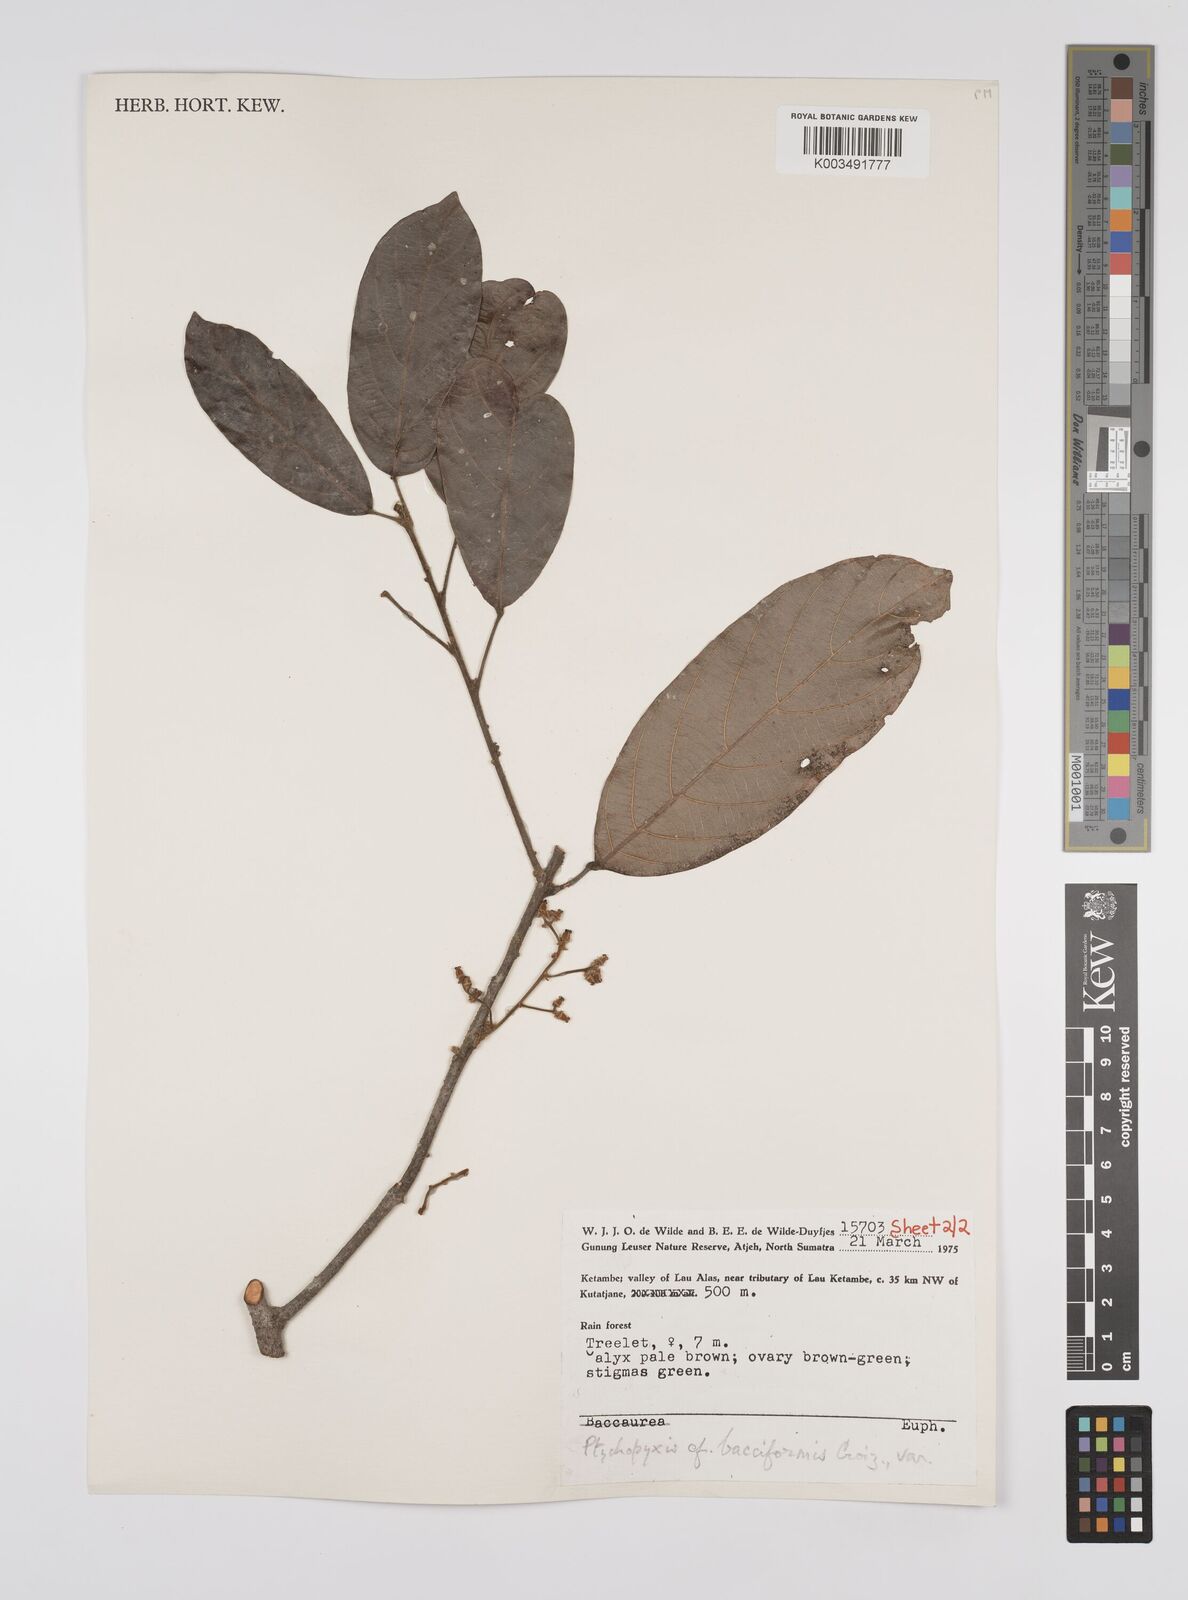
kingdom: Plantae
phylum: Tracheophyta
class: Magnoliopsida
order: Malpighiales
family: Euphorbiaceae
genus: Ptychopyxis
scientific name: Ptychopyxis bacciformis
